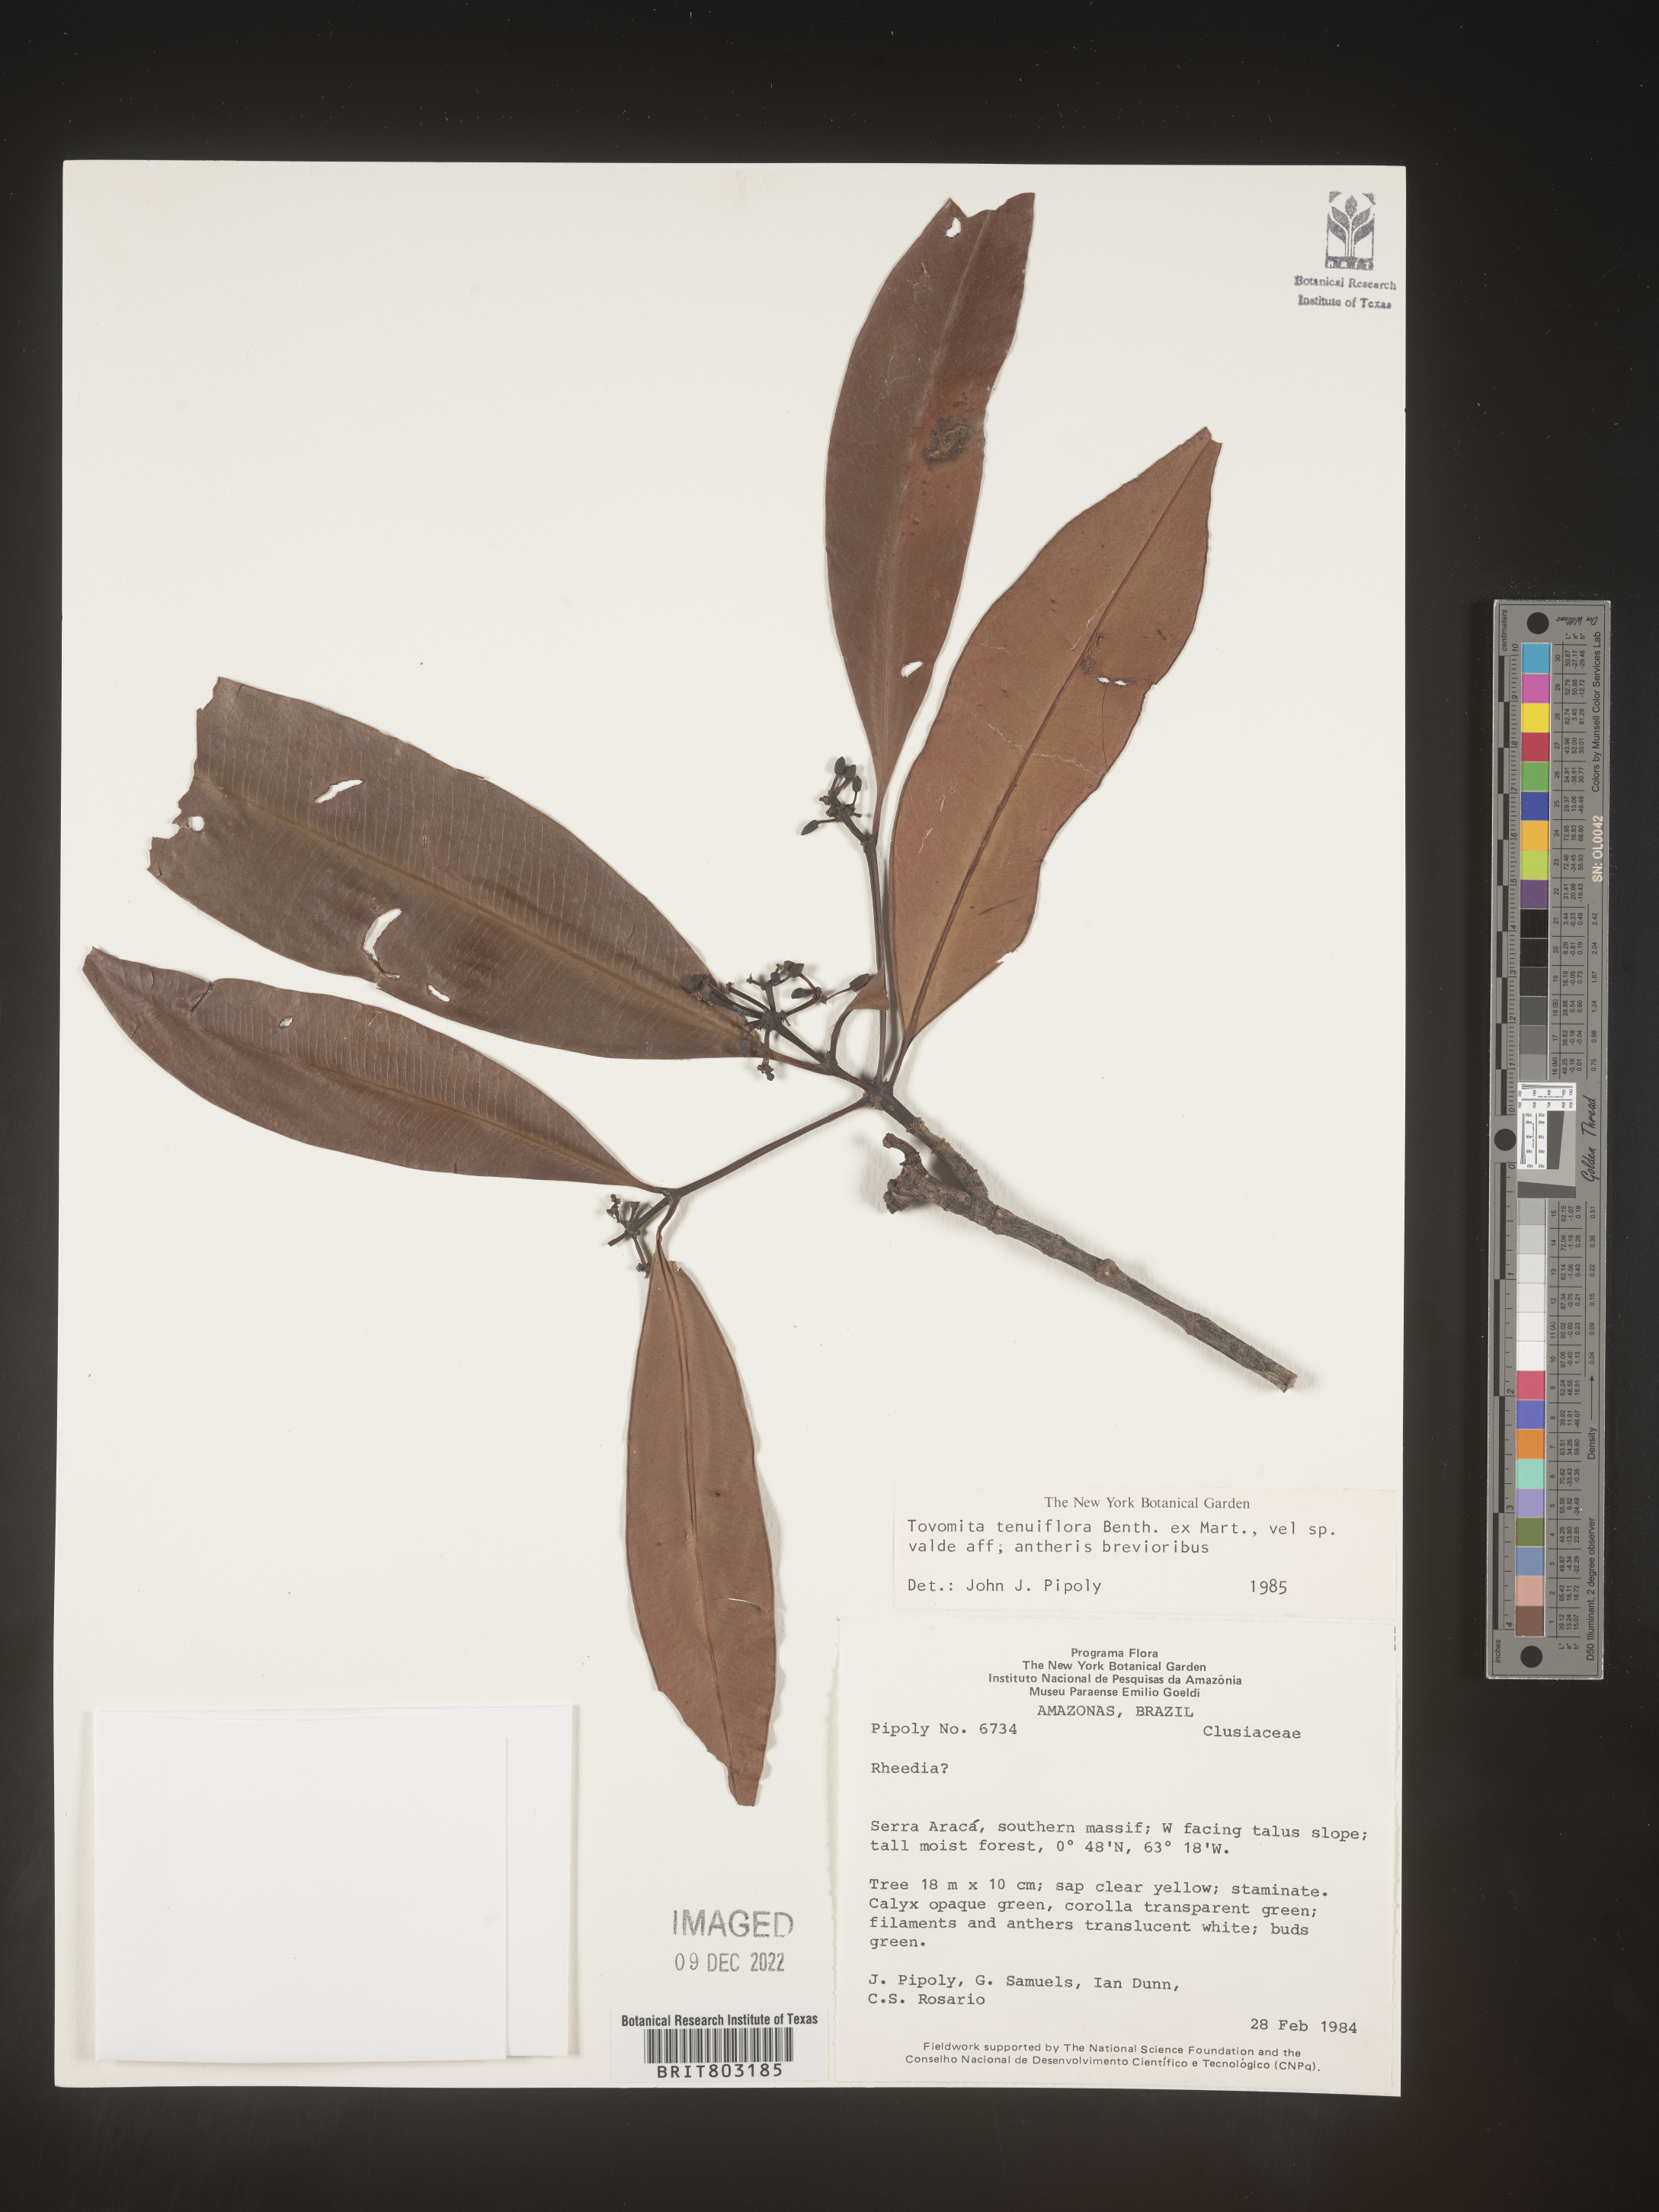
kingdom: Plantae
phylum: Tracheophyta
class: Magnoliopsida
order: Malpighiales
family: Clusiaceae
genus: Tovomita
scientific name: Tovomita
